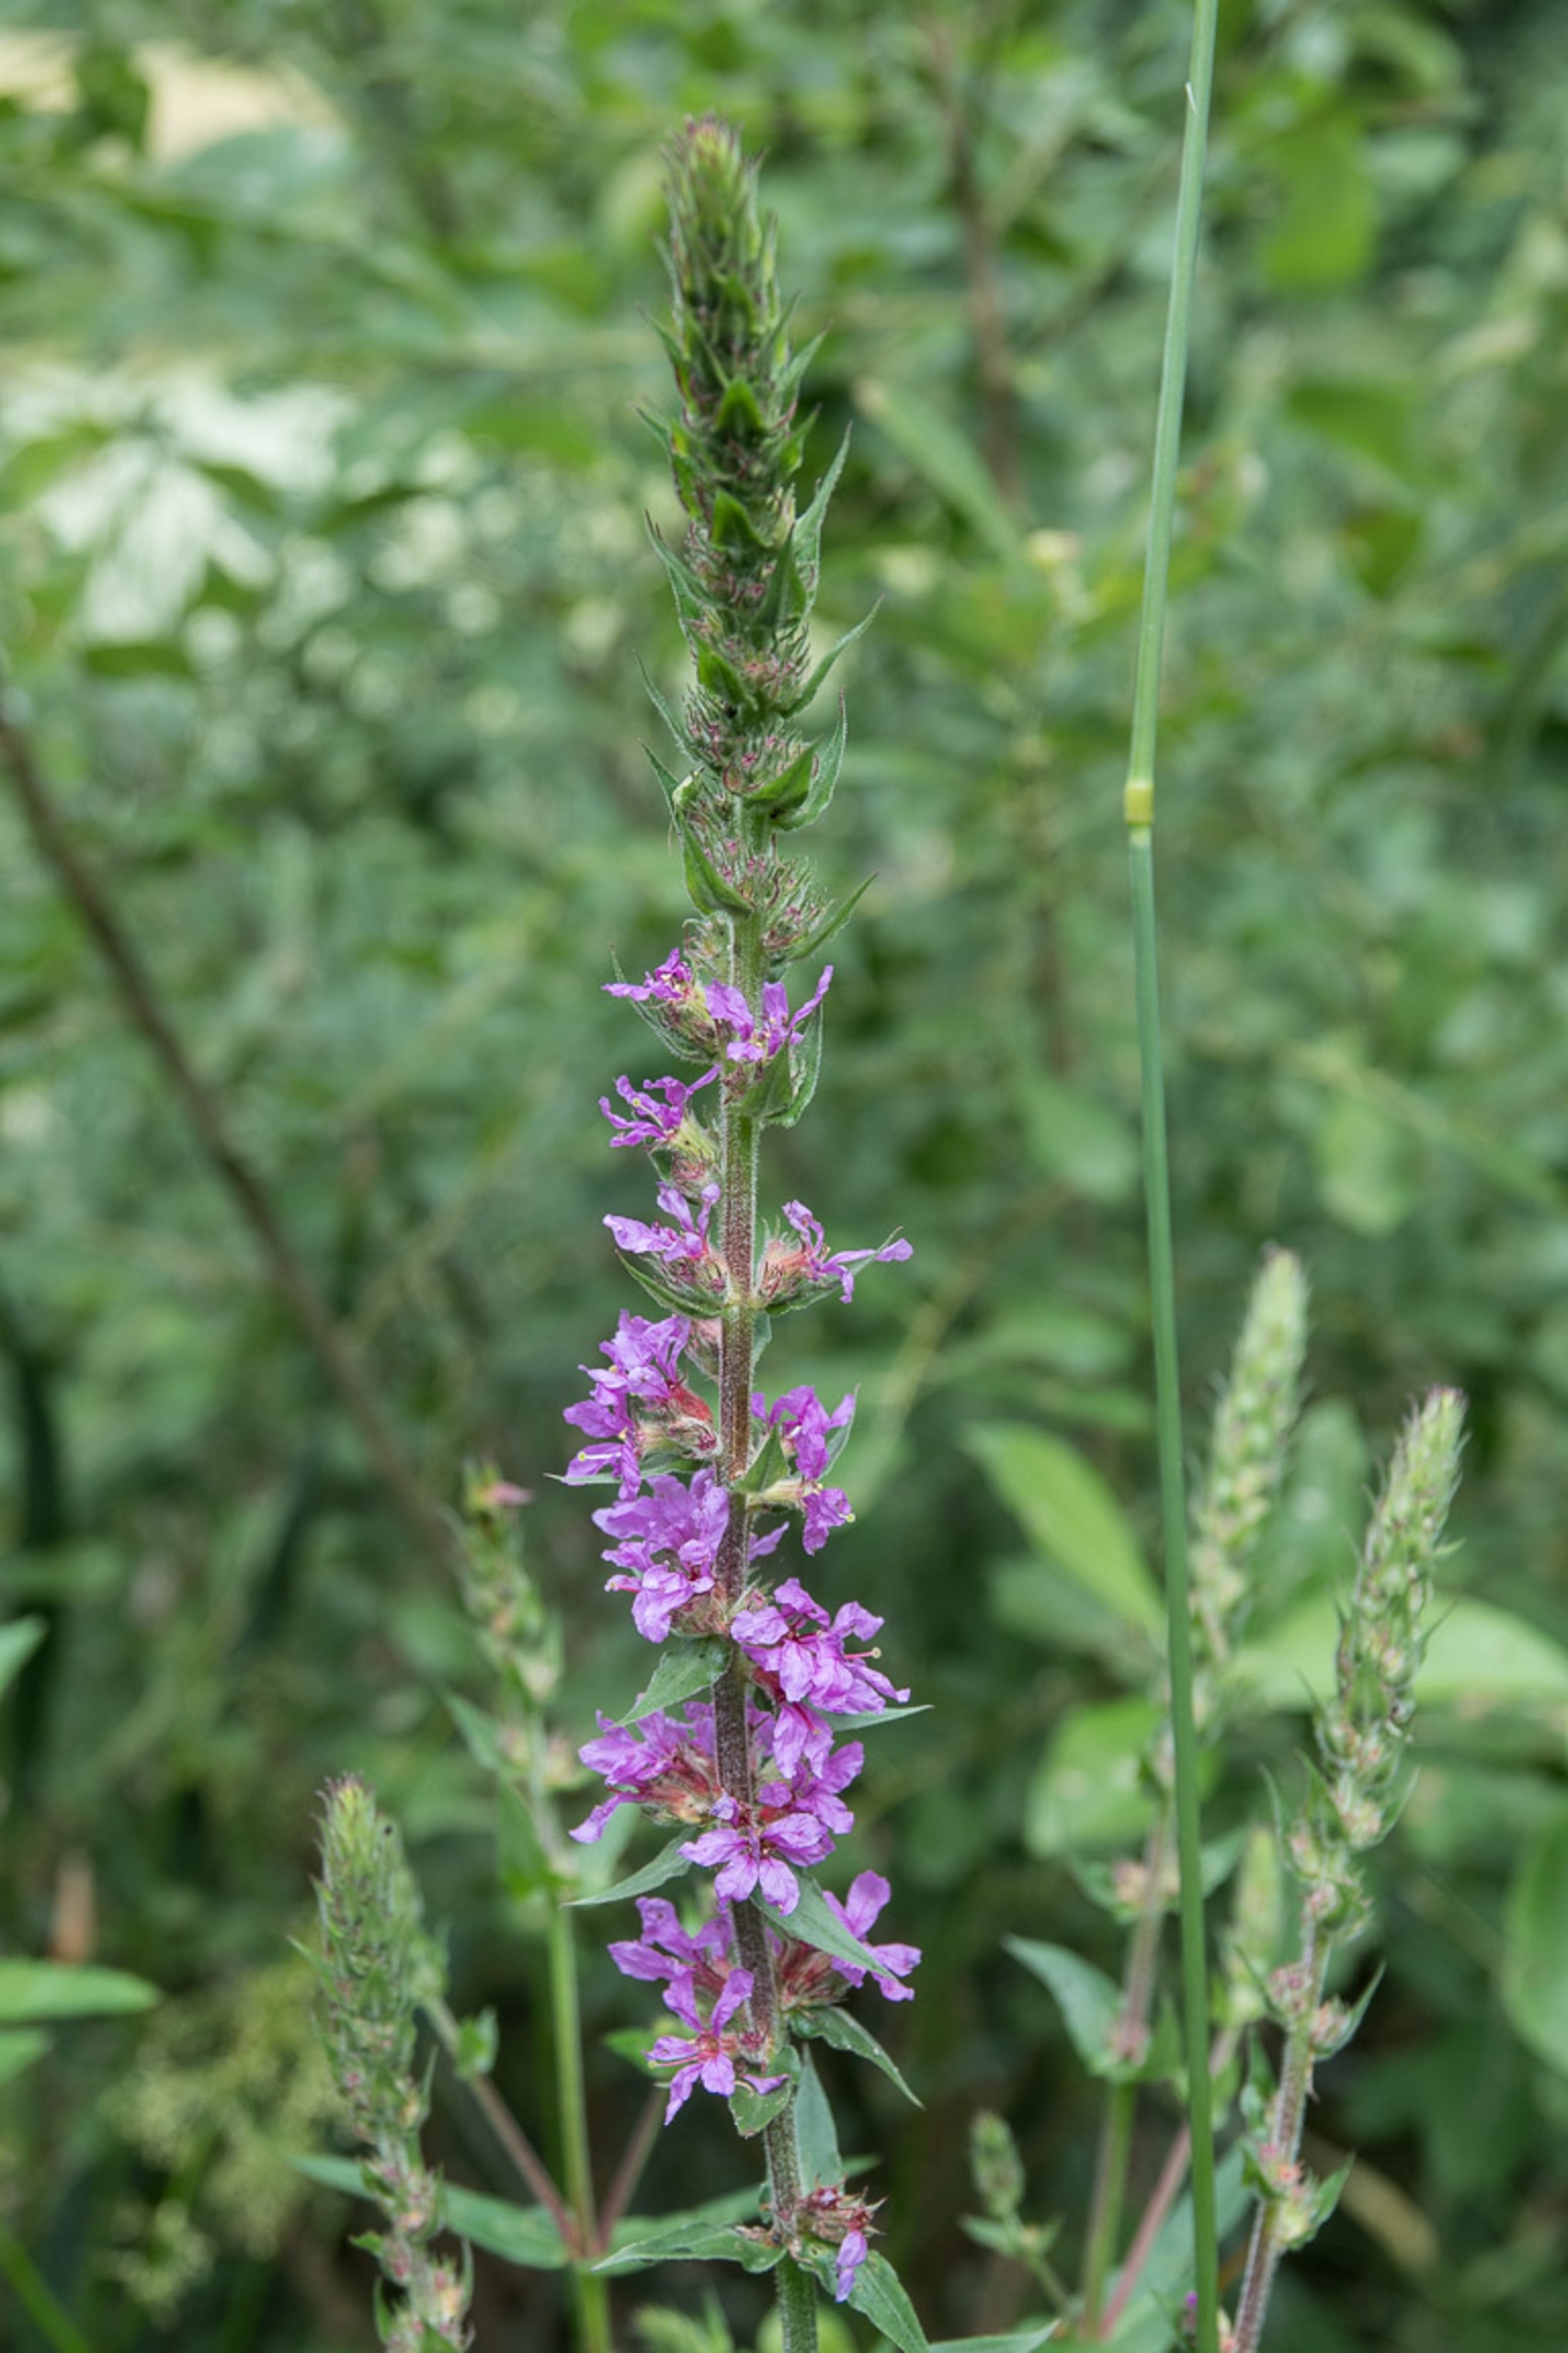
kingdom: Plantae
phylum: Tracheophyta
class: Magnoliopsida
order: Myrtales
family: Lythraceae
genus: Lythrum
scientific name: Lythrum salicaria
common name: Kattehale
